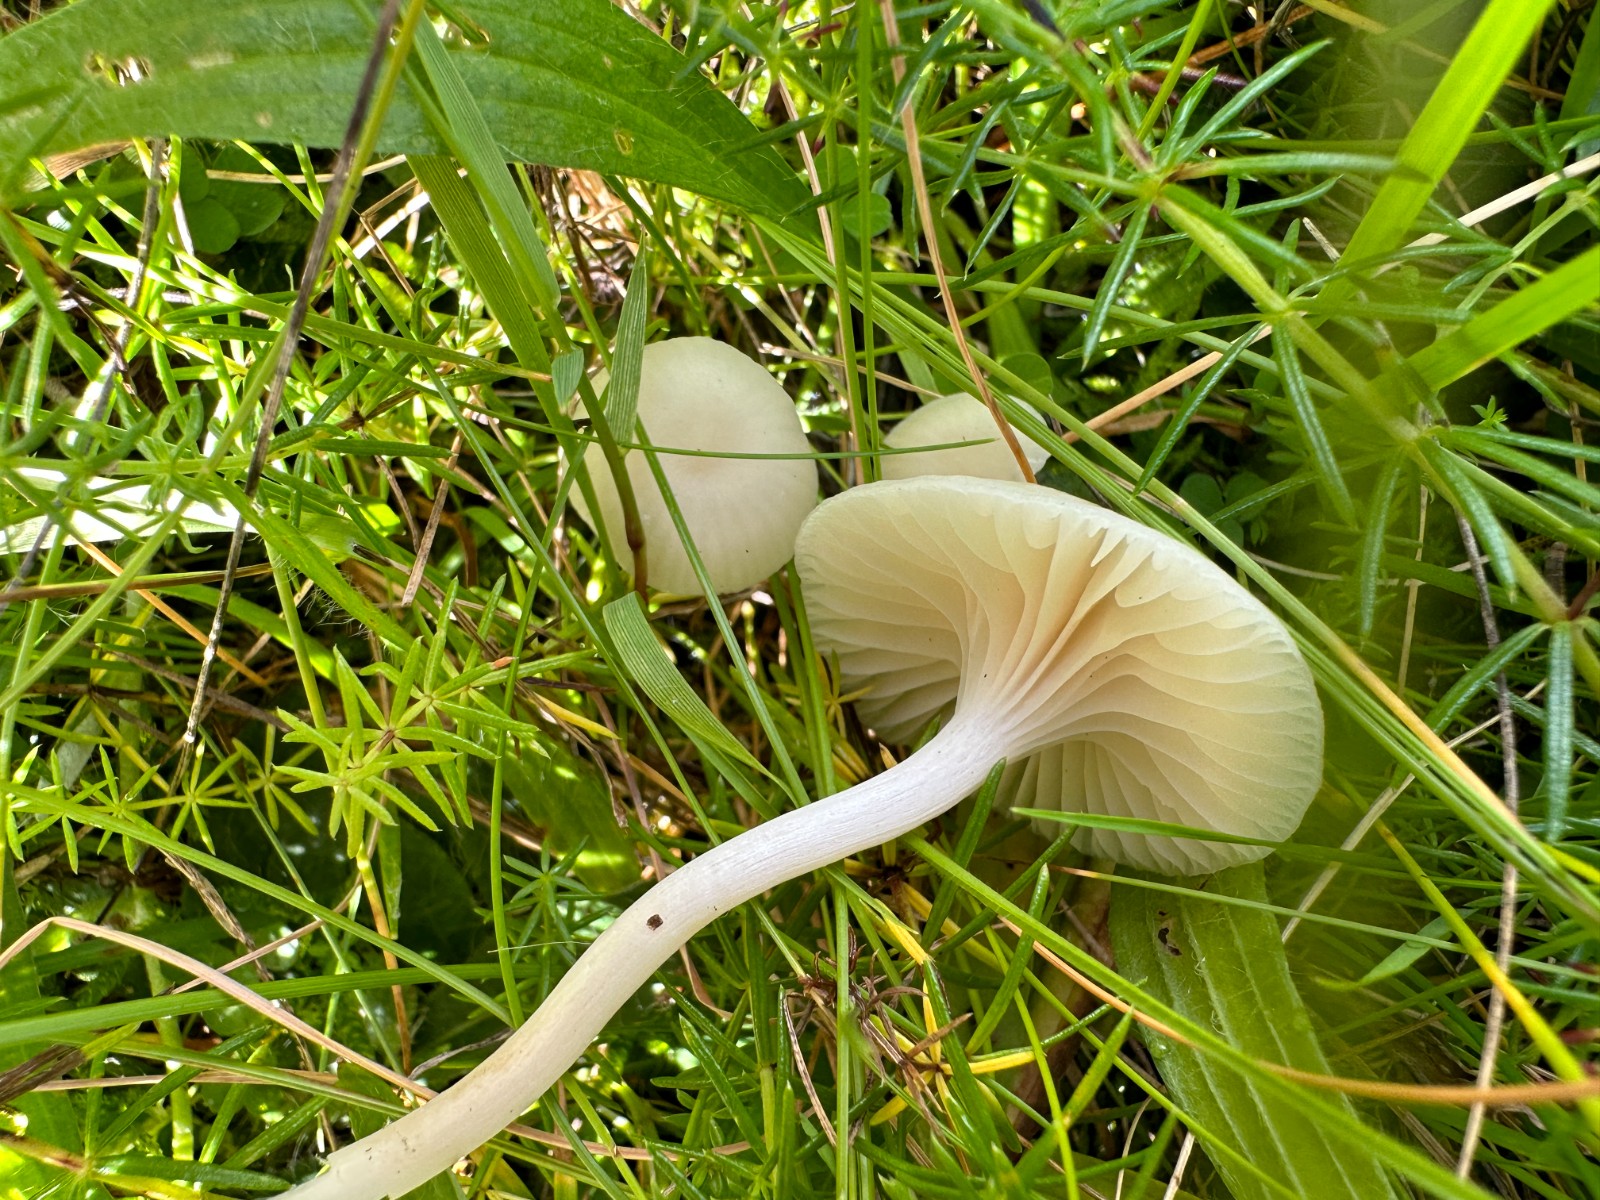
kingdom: Fungi
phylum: Basidiomycota
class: Agaricomycetes
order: Agaricales
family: Hygrophoraceae
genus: Cuphophyllus
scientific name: Cuphophyllus virgineus
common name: snehvid vokshat
